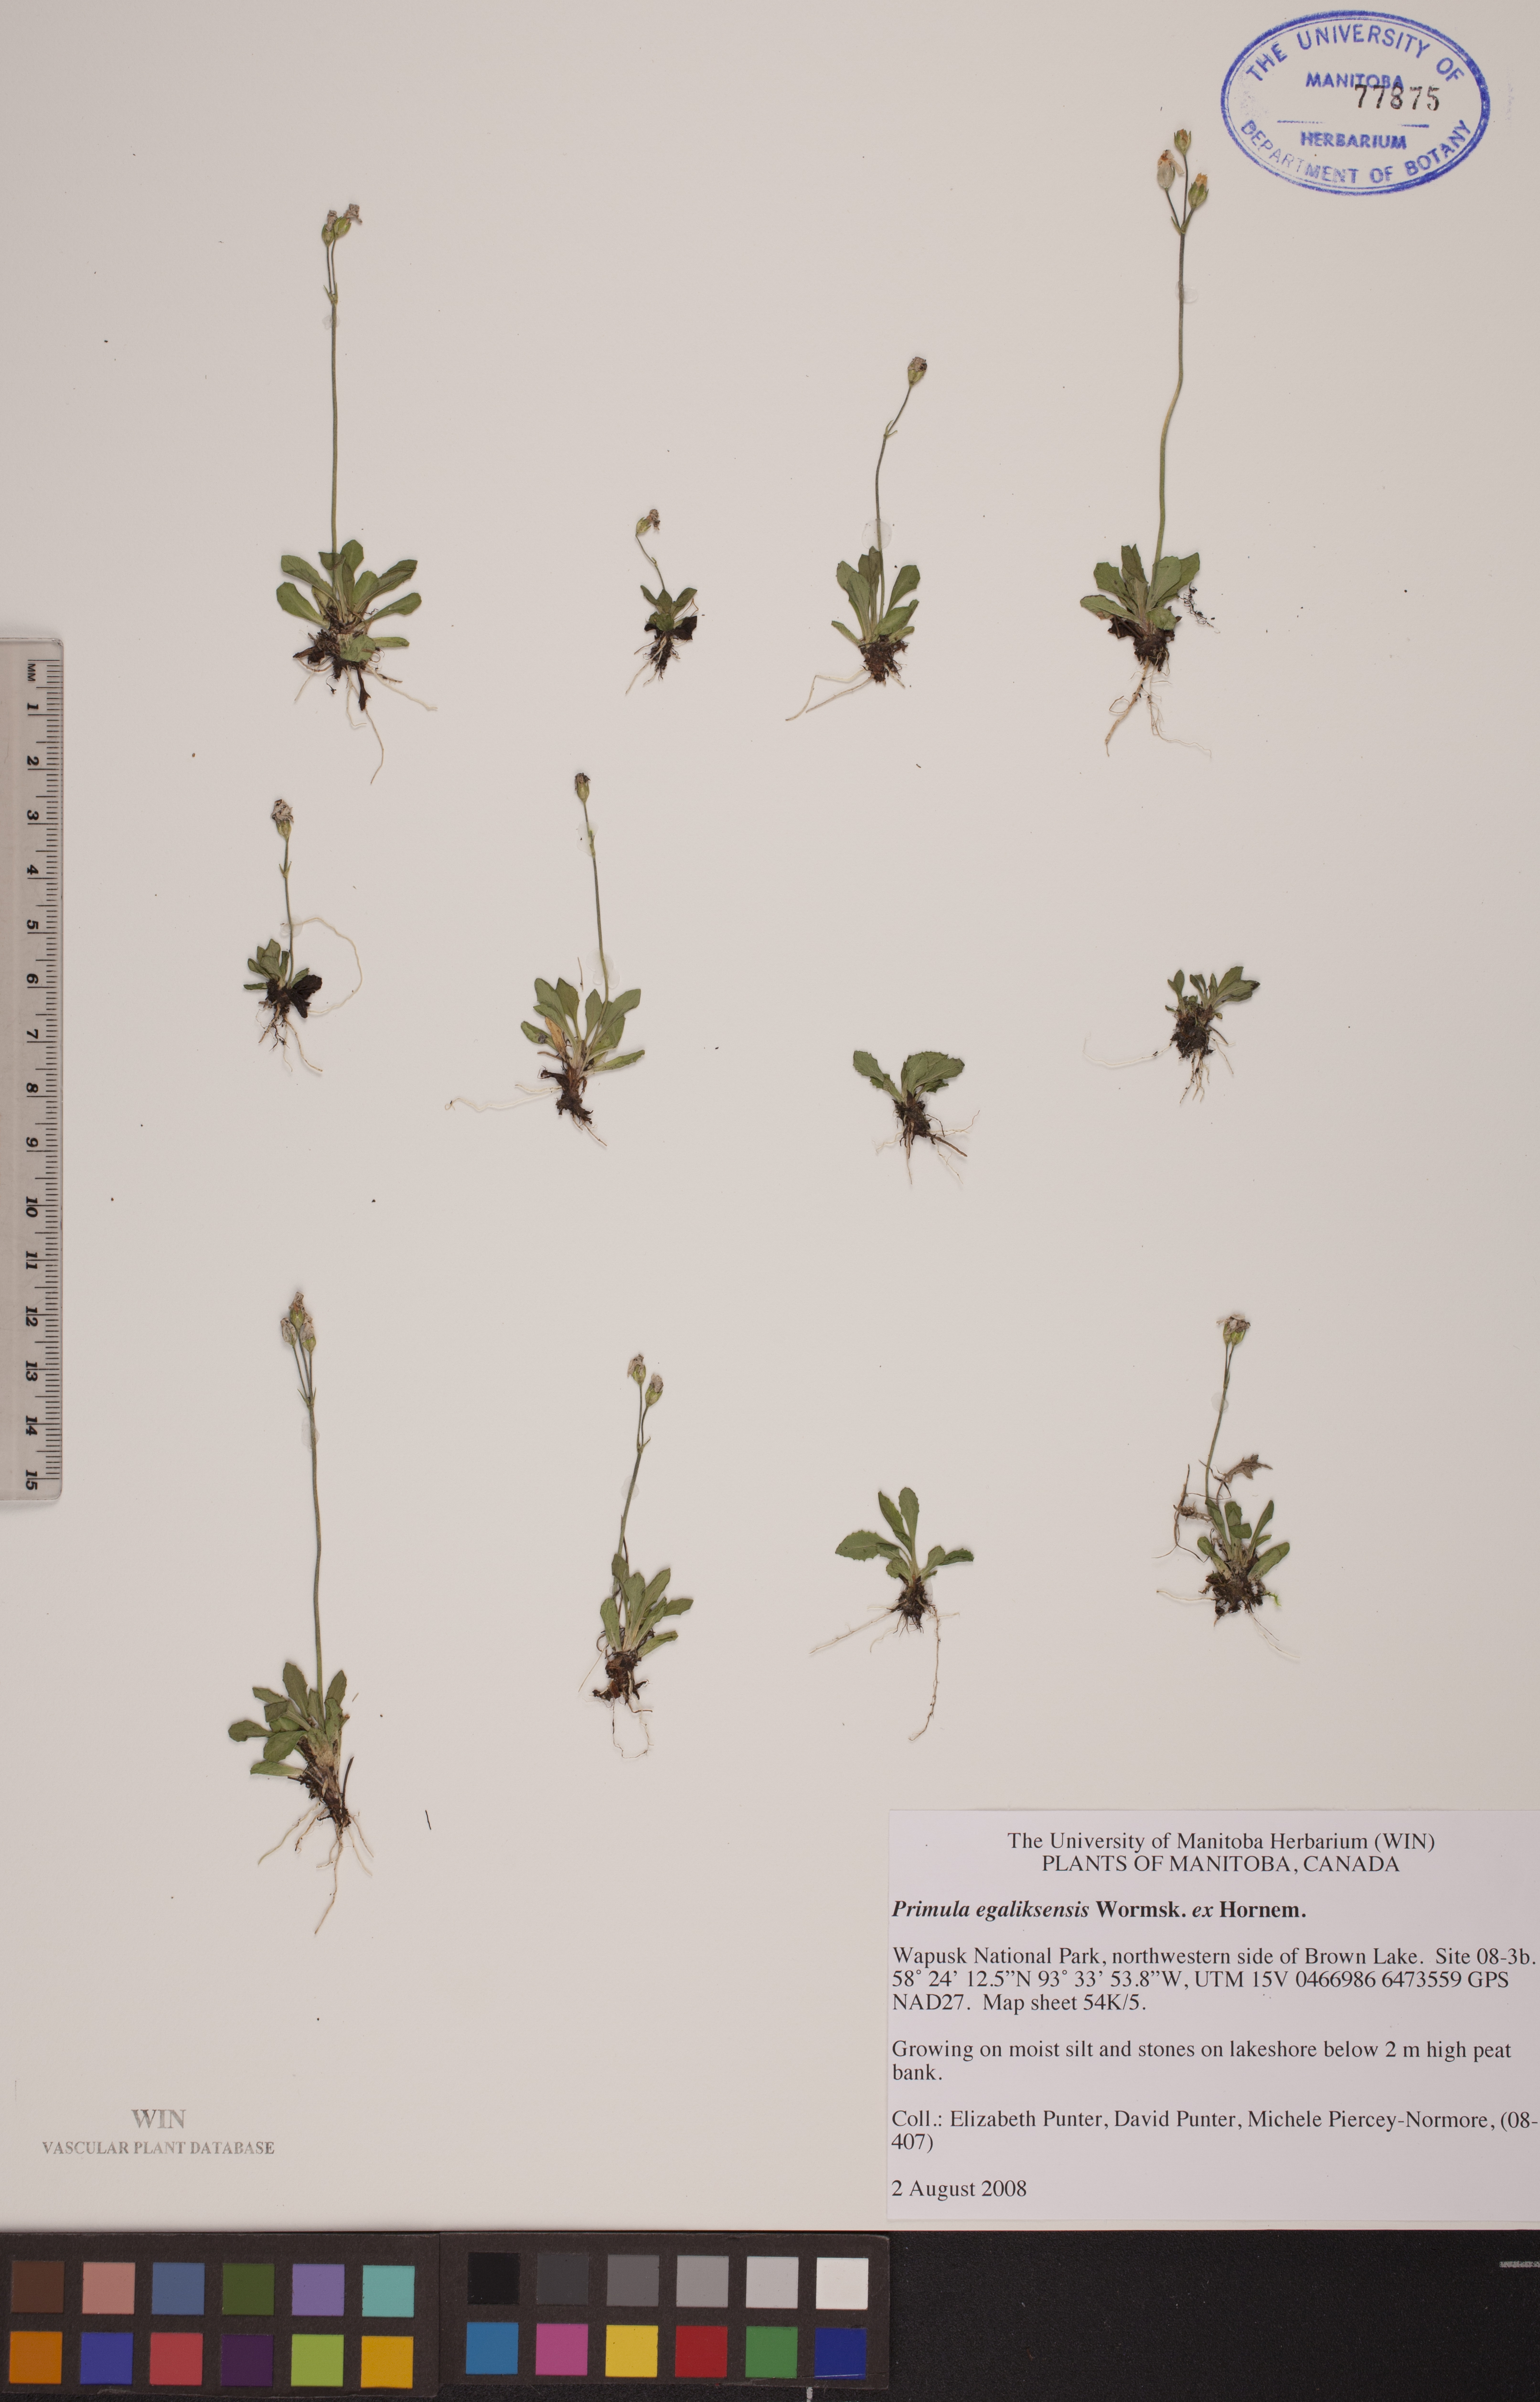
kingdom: Plantae
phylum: Tracheophyta
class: Magnoliopsida
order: Ericales
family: Primulaceae
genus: Primula
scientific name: Primula egaliksensis
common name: Greenland primrose
